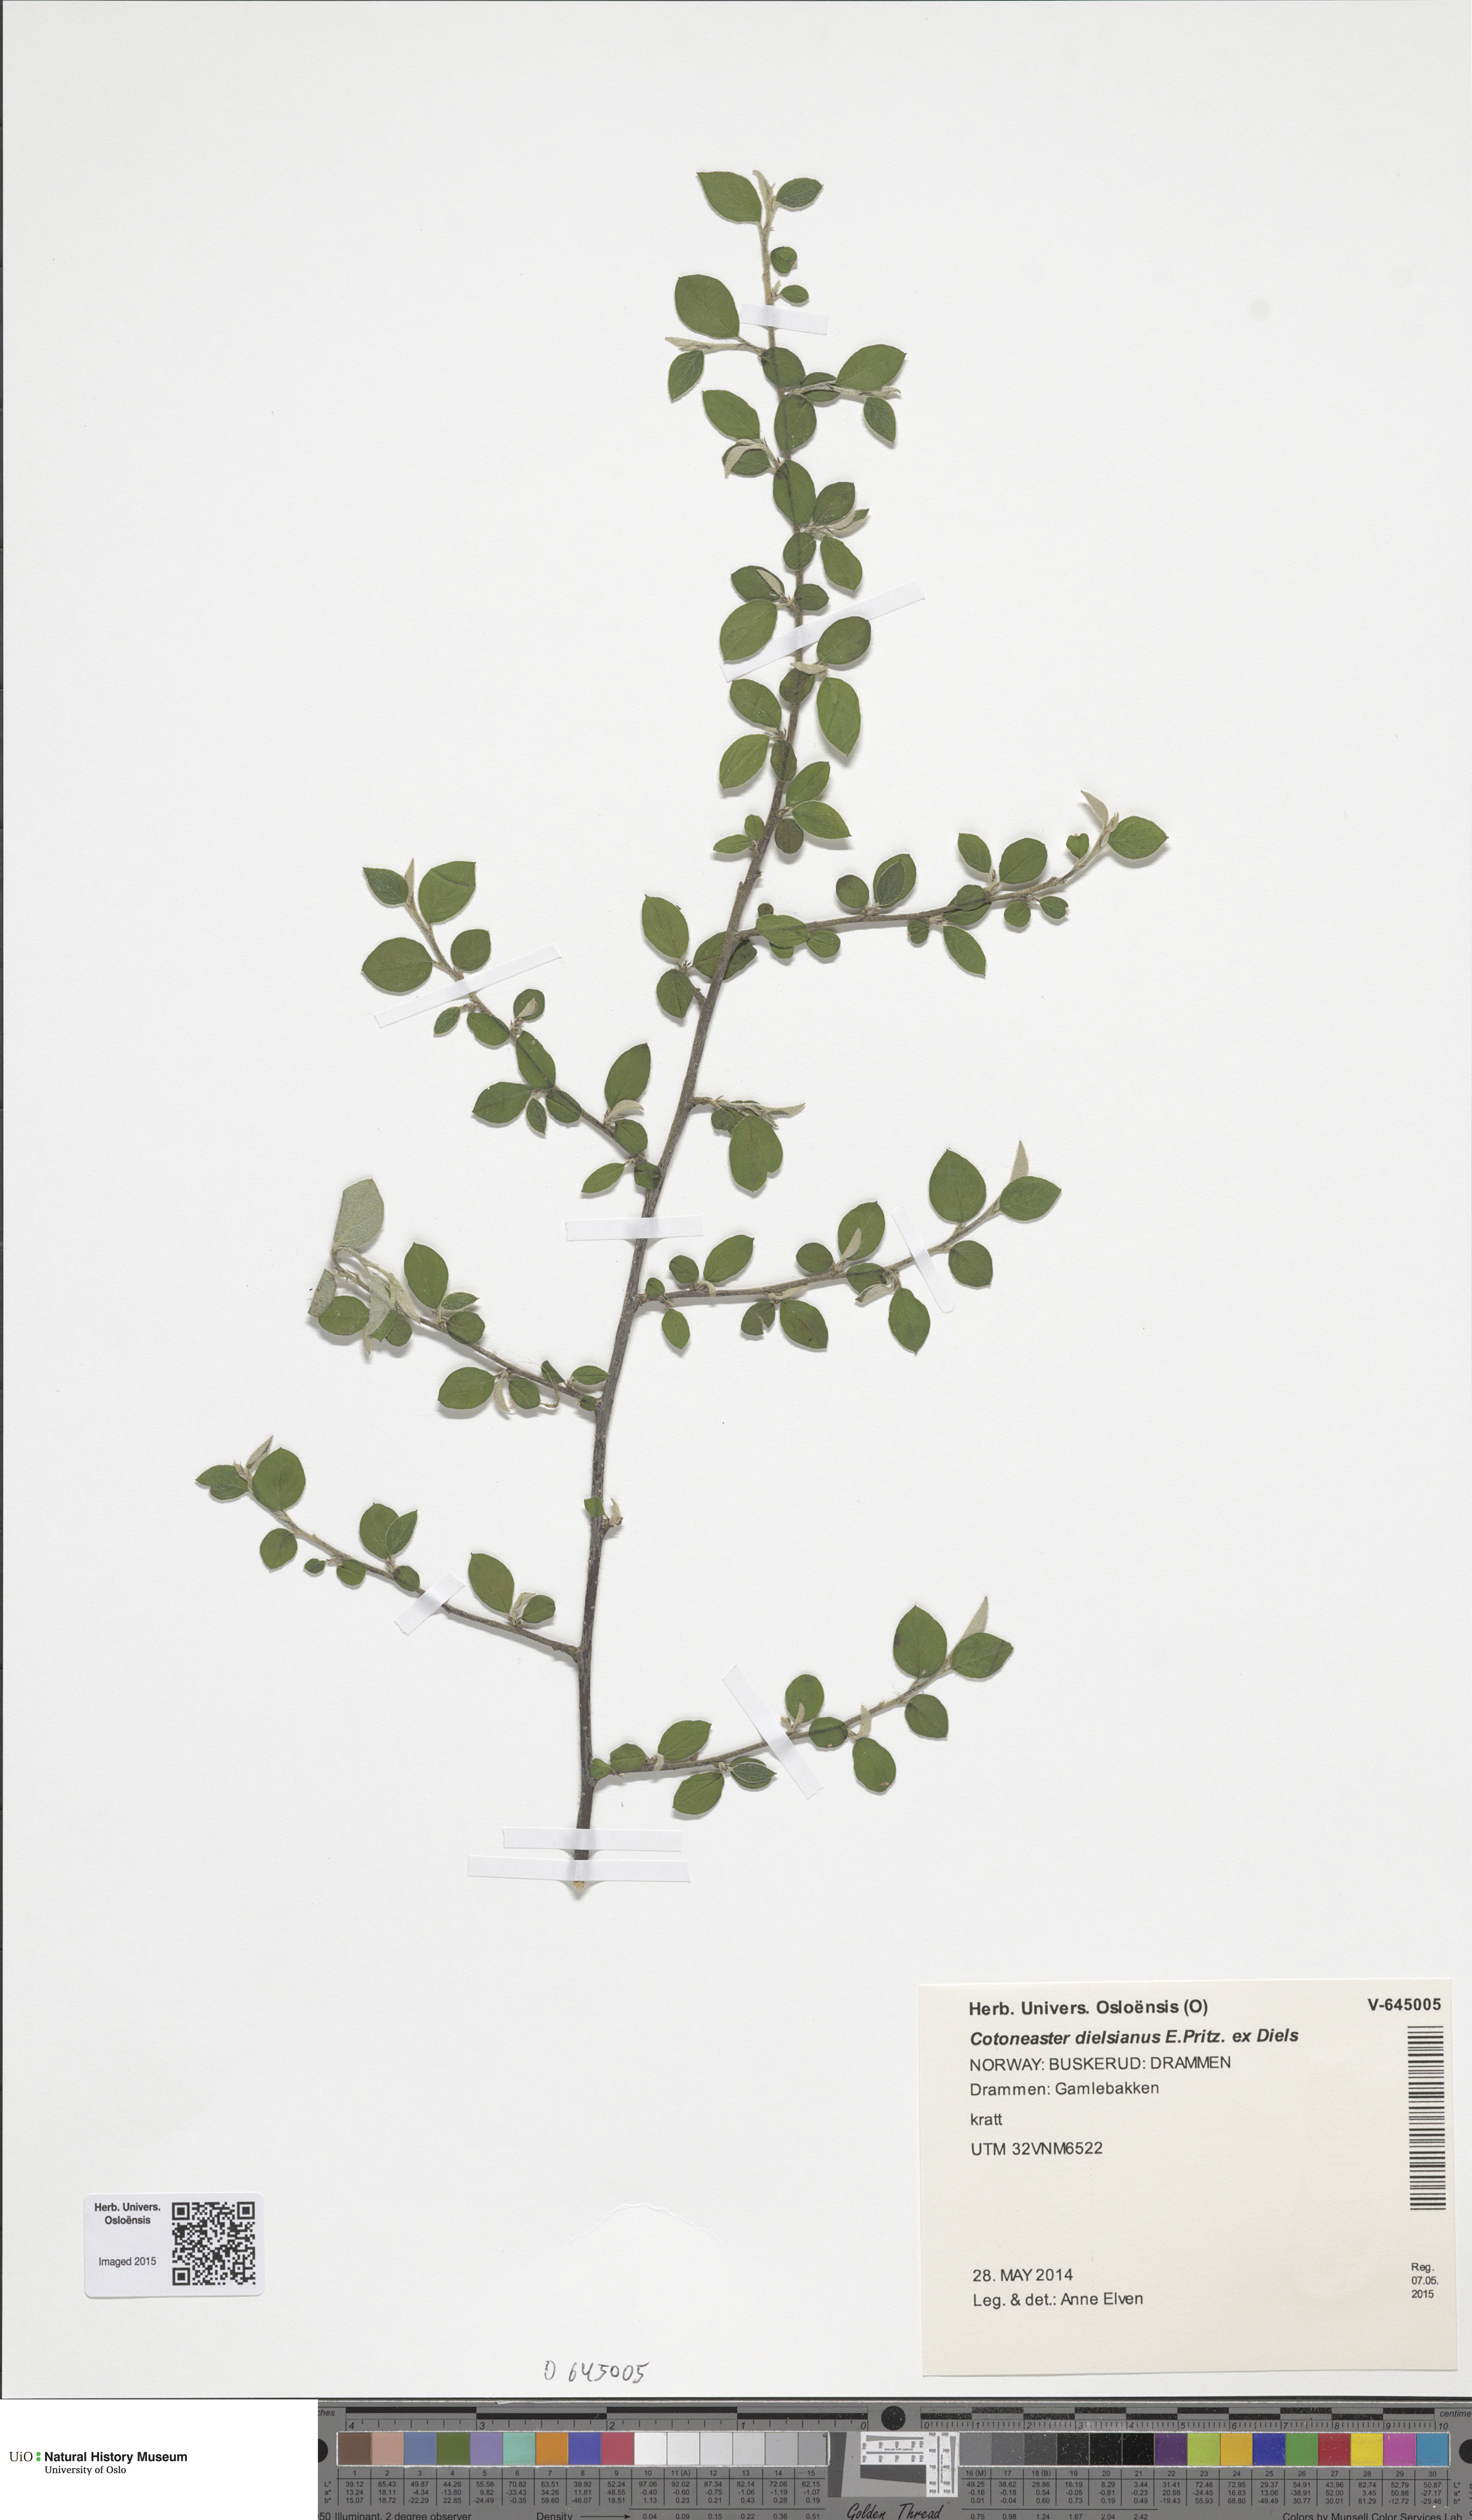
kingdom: Plantae
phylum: Tracheophyta
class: Magnoliopsida
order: Rosales
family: Rosaceae
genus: Cotoneaster
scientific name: Cotoneaster dielsianus
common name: Diels's cotoneaster
